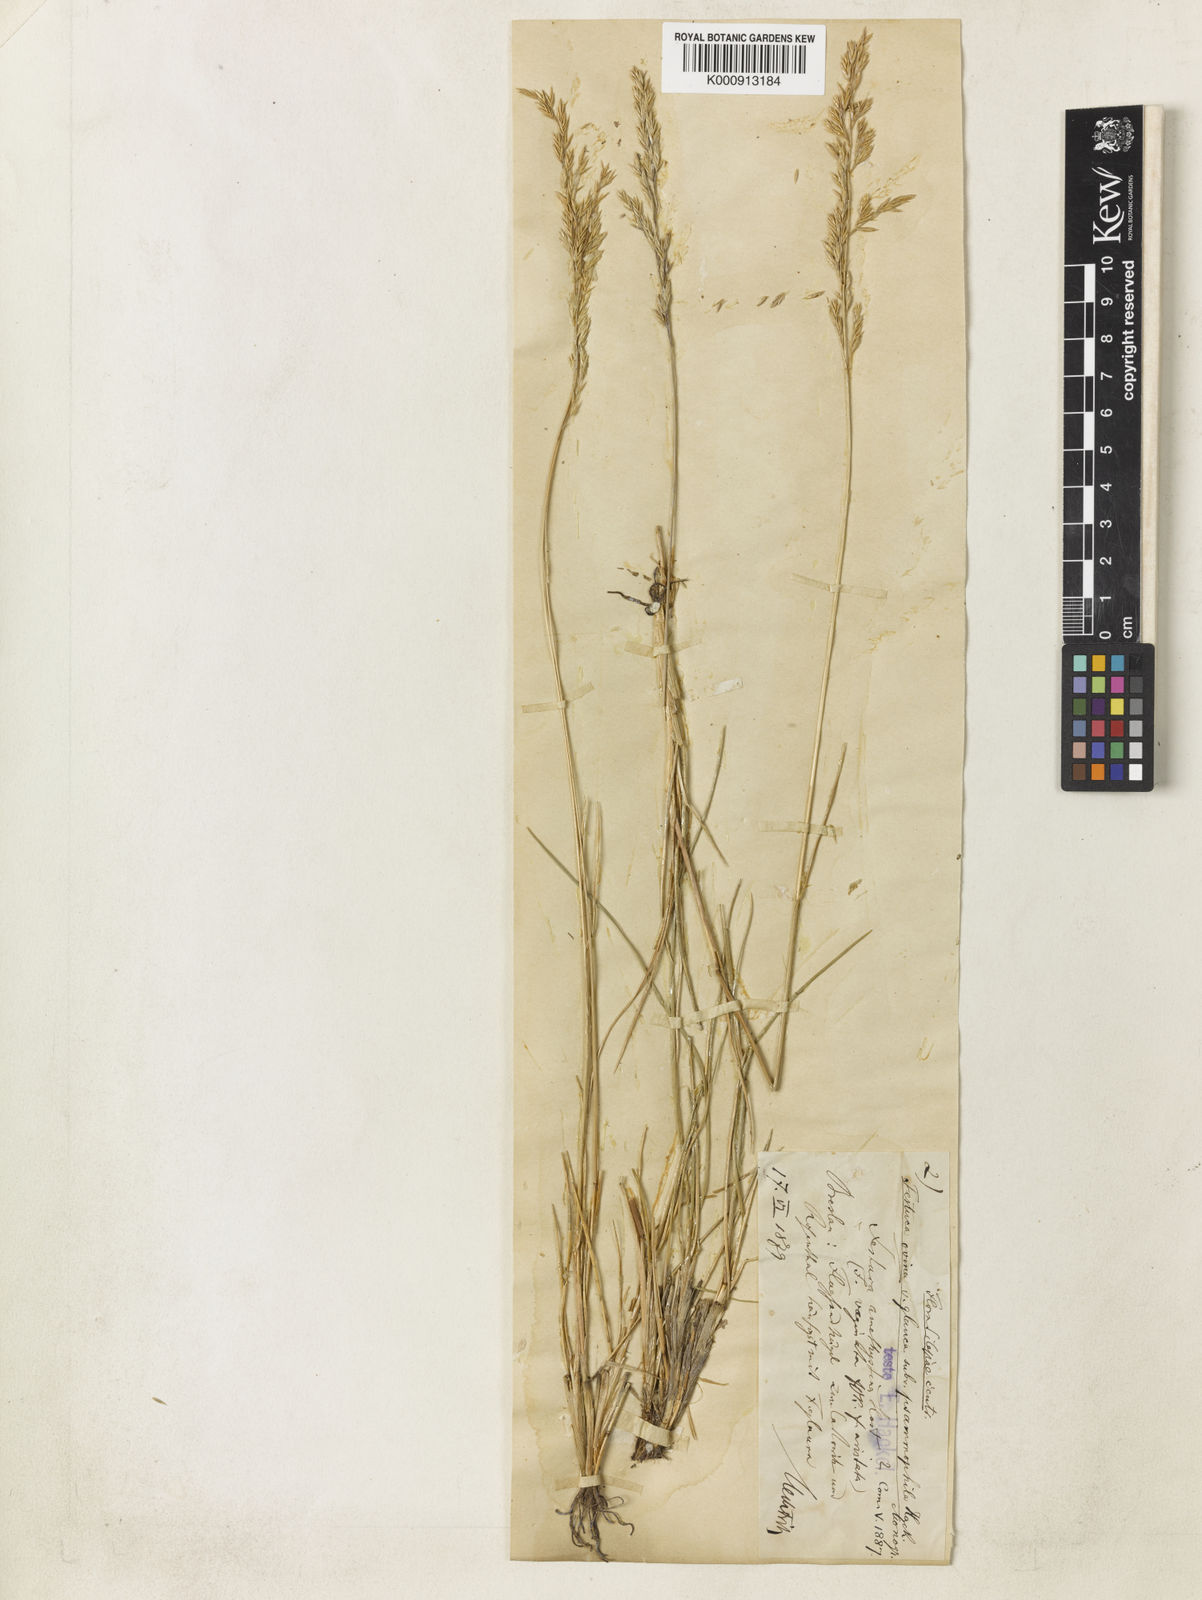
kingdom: Plantae
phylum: Tracheophyta
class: Liliopsida
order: Poales
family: Poaceae
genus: Festuca
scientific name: Festuca psammophila
